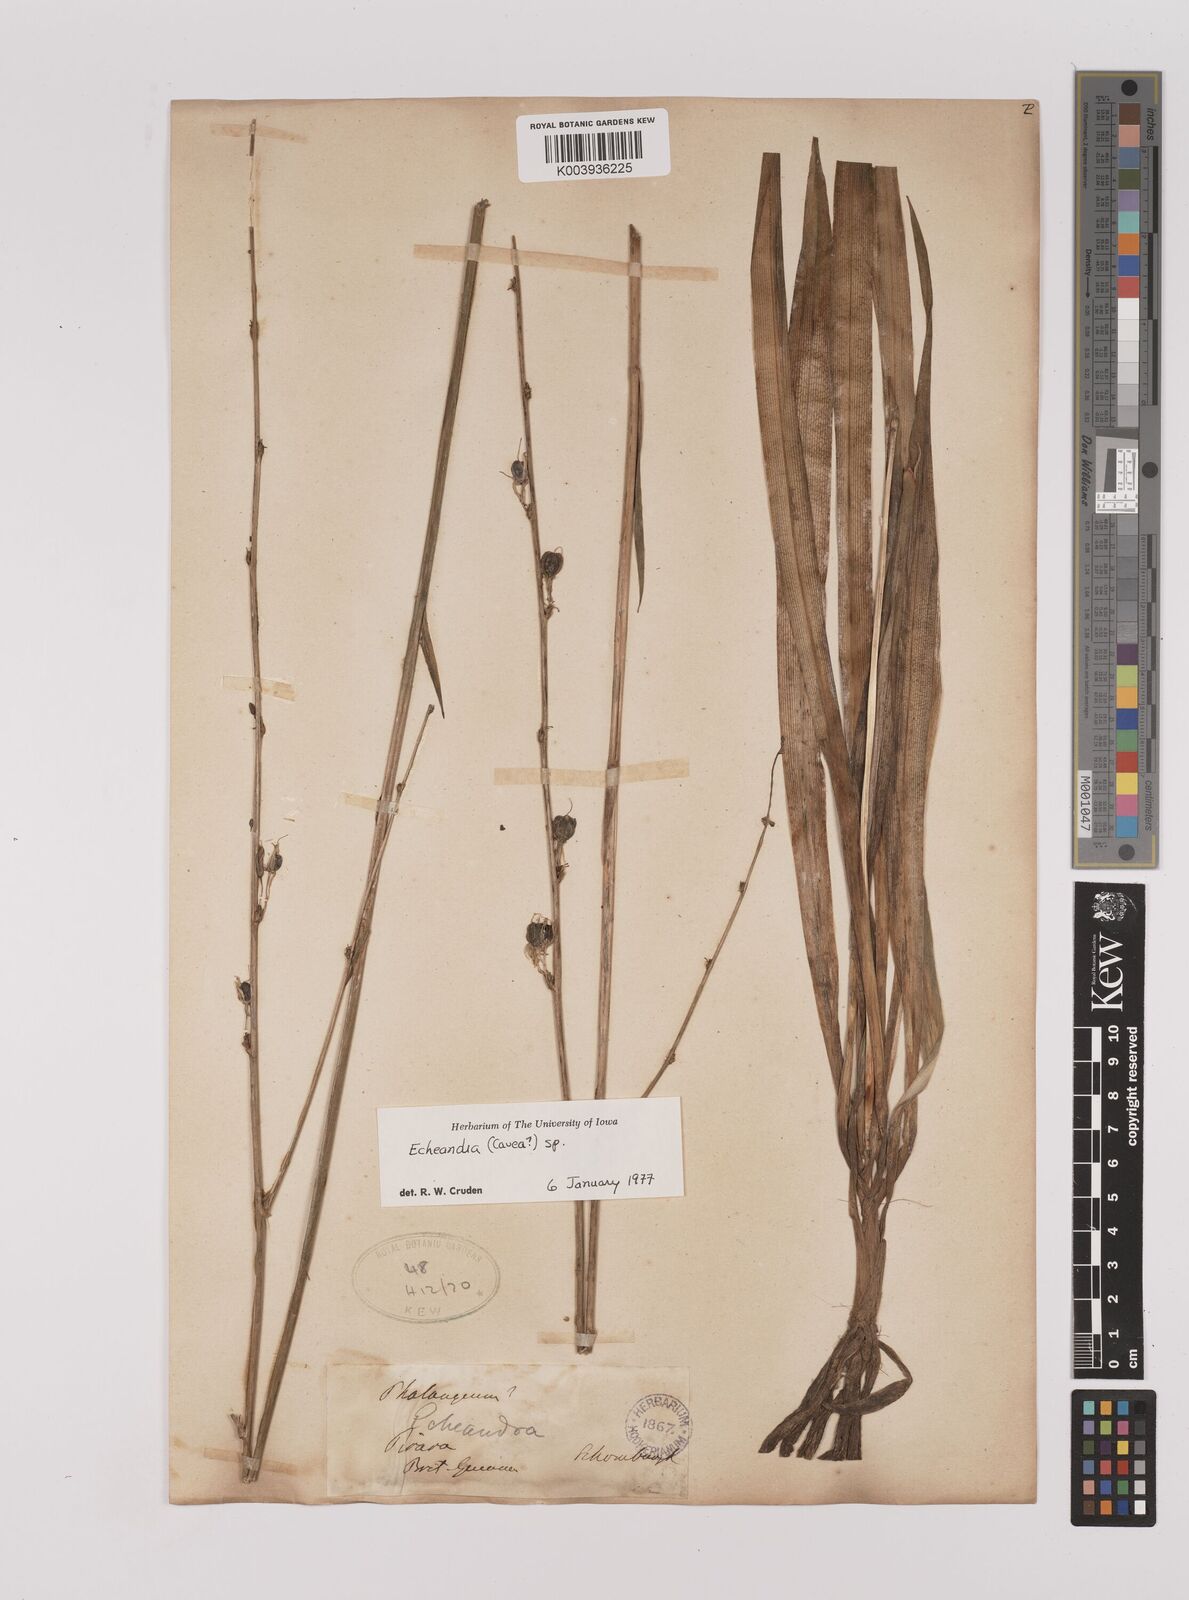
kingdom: Plantae
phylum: Tracheophyta
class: Liliopsida
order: Asparagales
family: Asparagaceae
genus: Echeandia
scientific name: Echeandia
